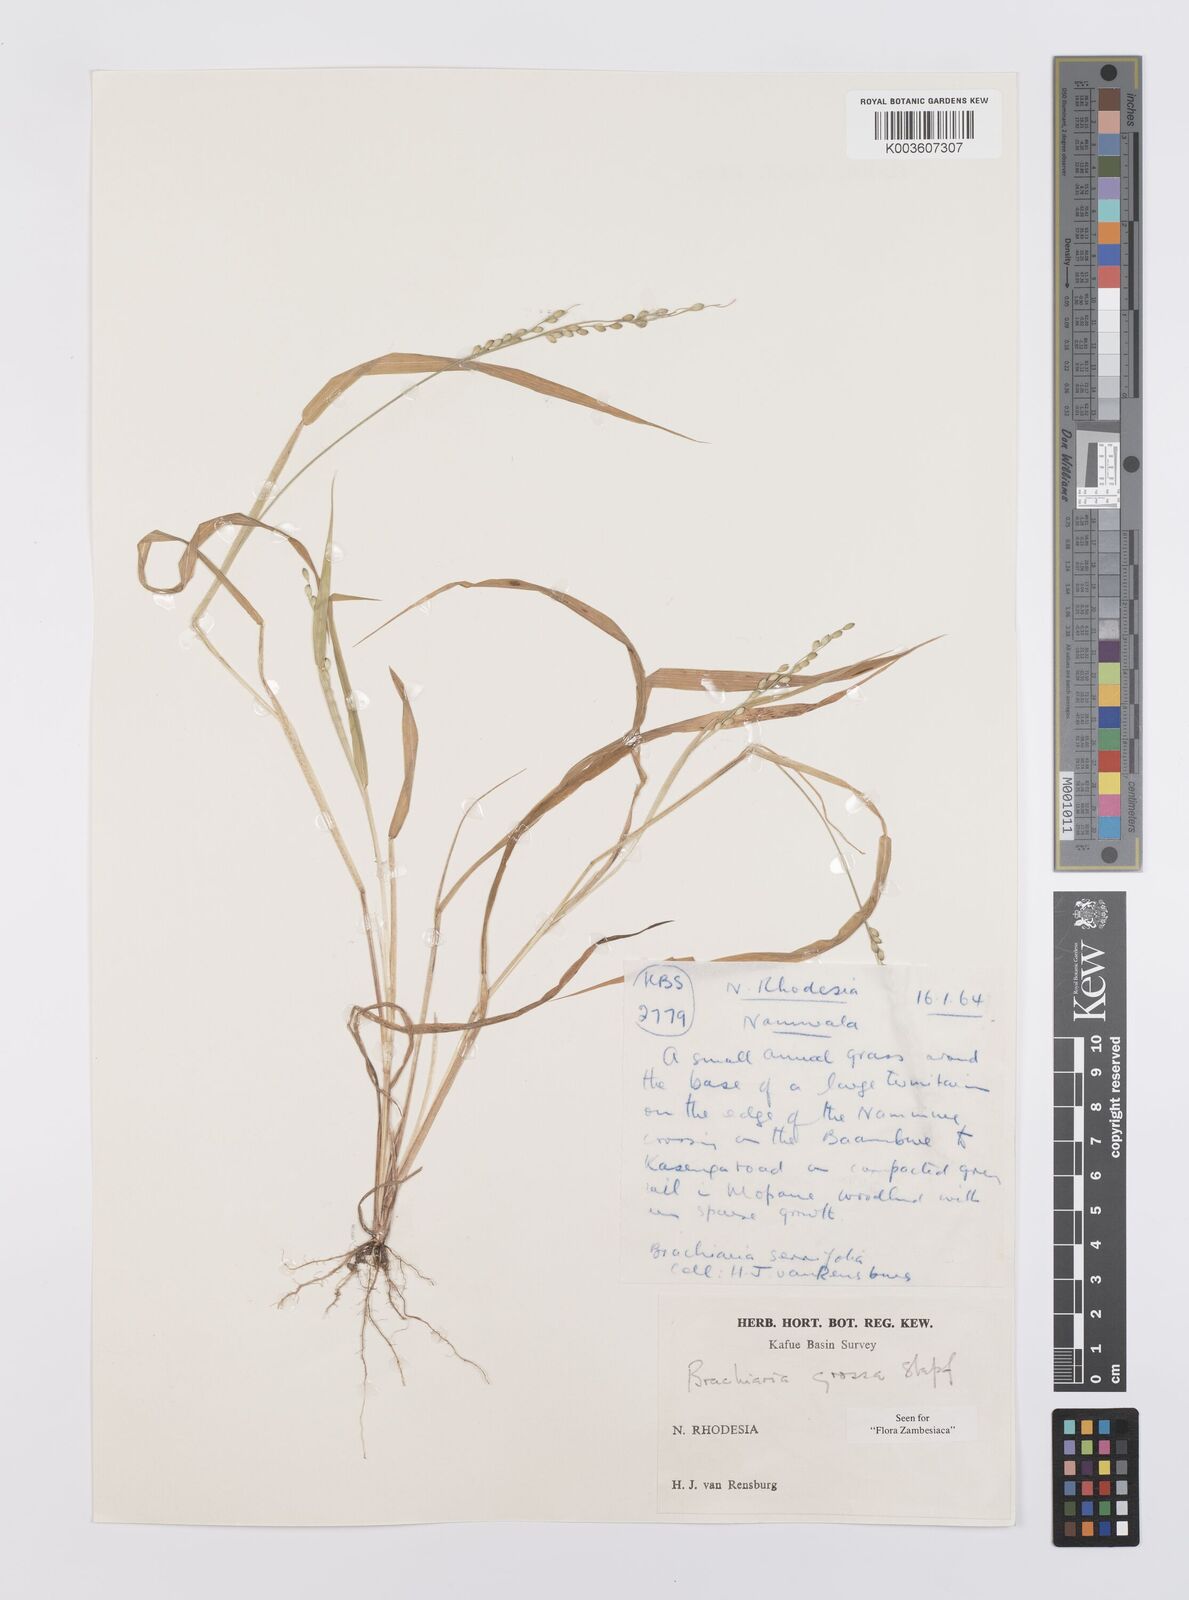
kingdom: Plantae
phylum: Tracheophyta
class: Liliopsida
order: Poales
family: Poaceae
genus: Urochloa
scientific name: Urochloa Brachiaria grossa
